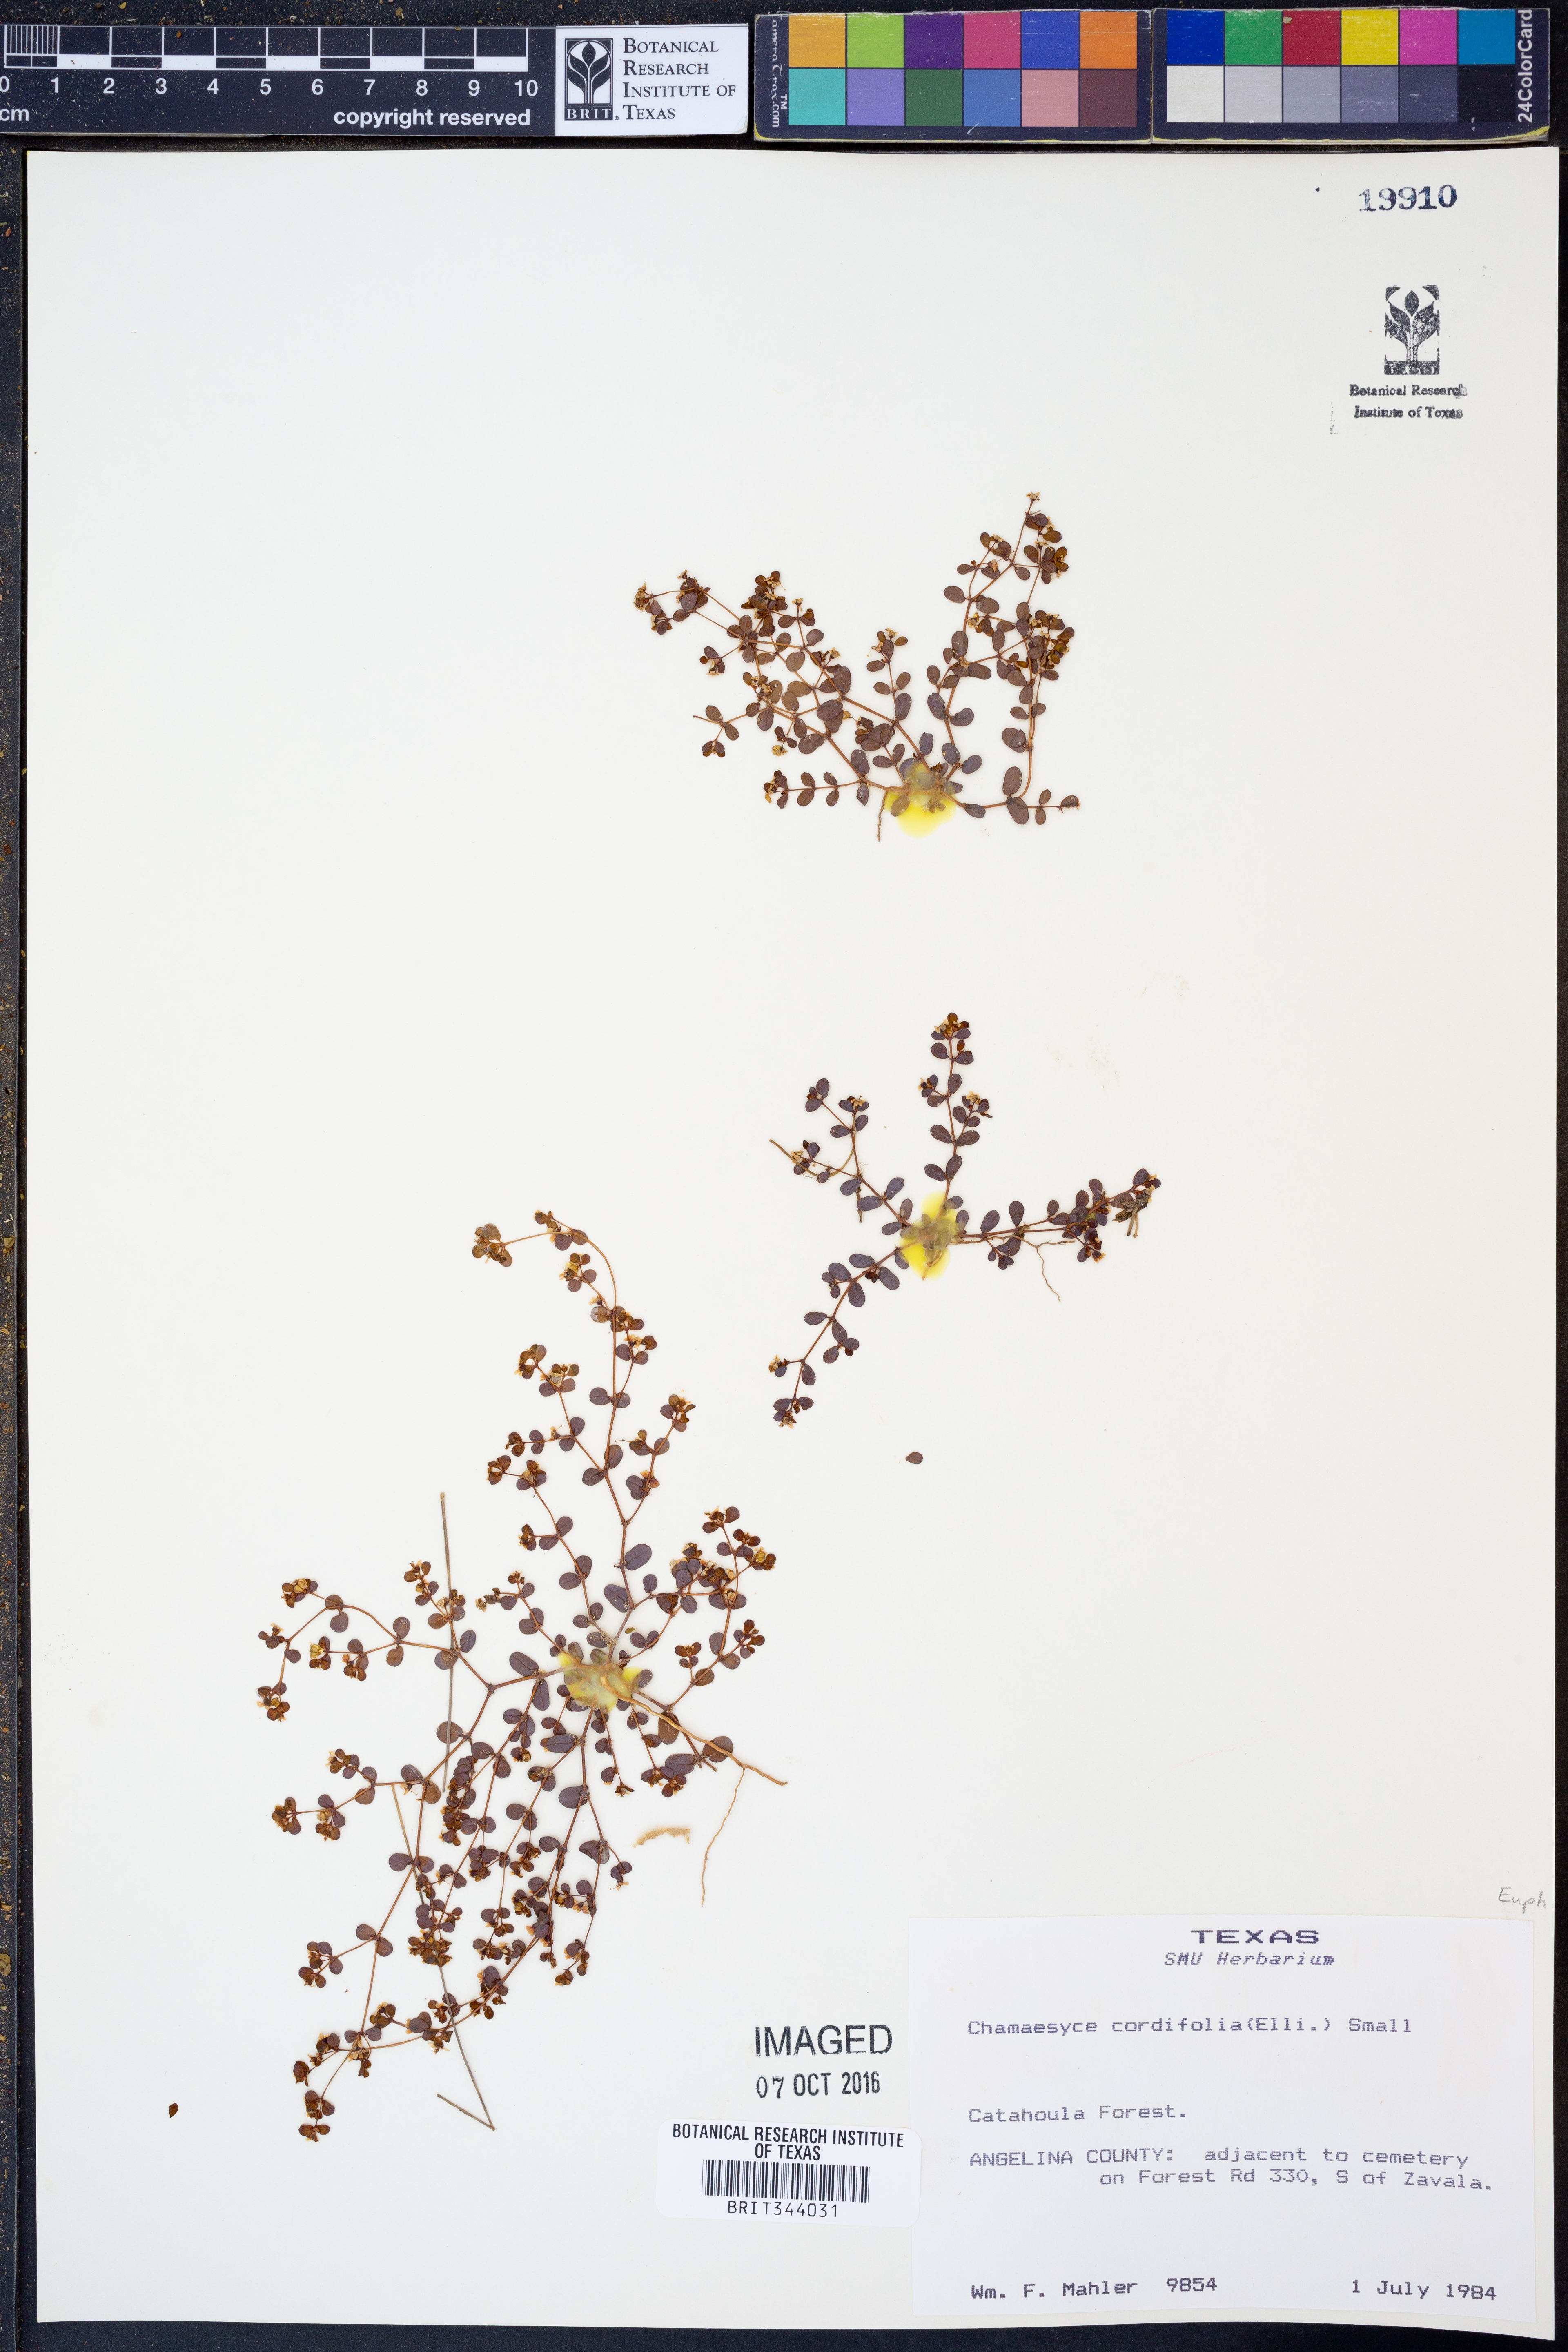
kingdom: Plantae
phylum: Tracheophyta
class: Magnoliopsida
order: Malpighiales
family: Euphorbiaceae
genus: Euphorbia
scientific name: Euphorbia cordifolia
